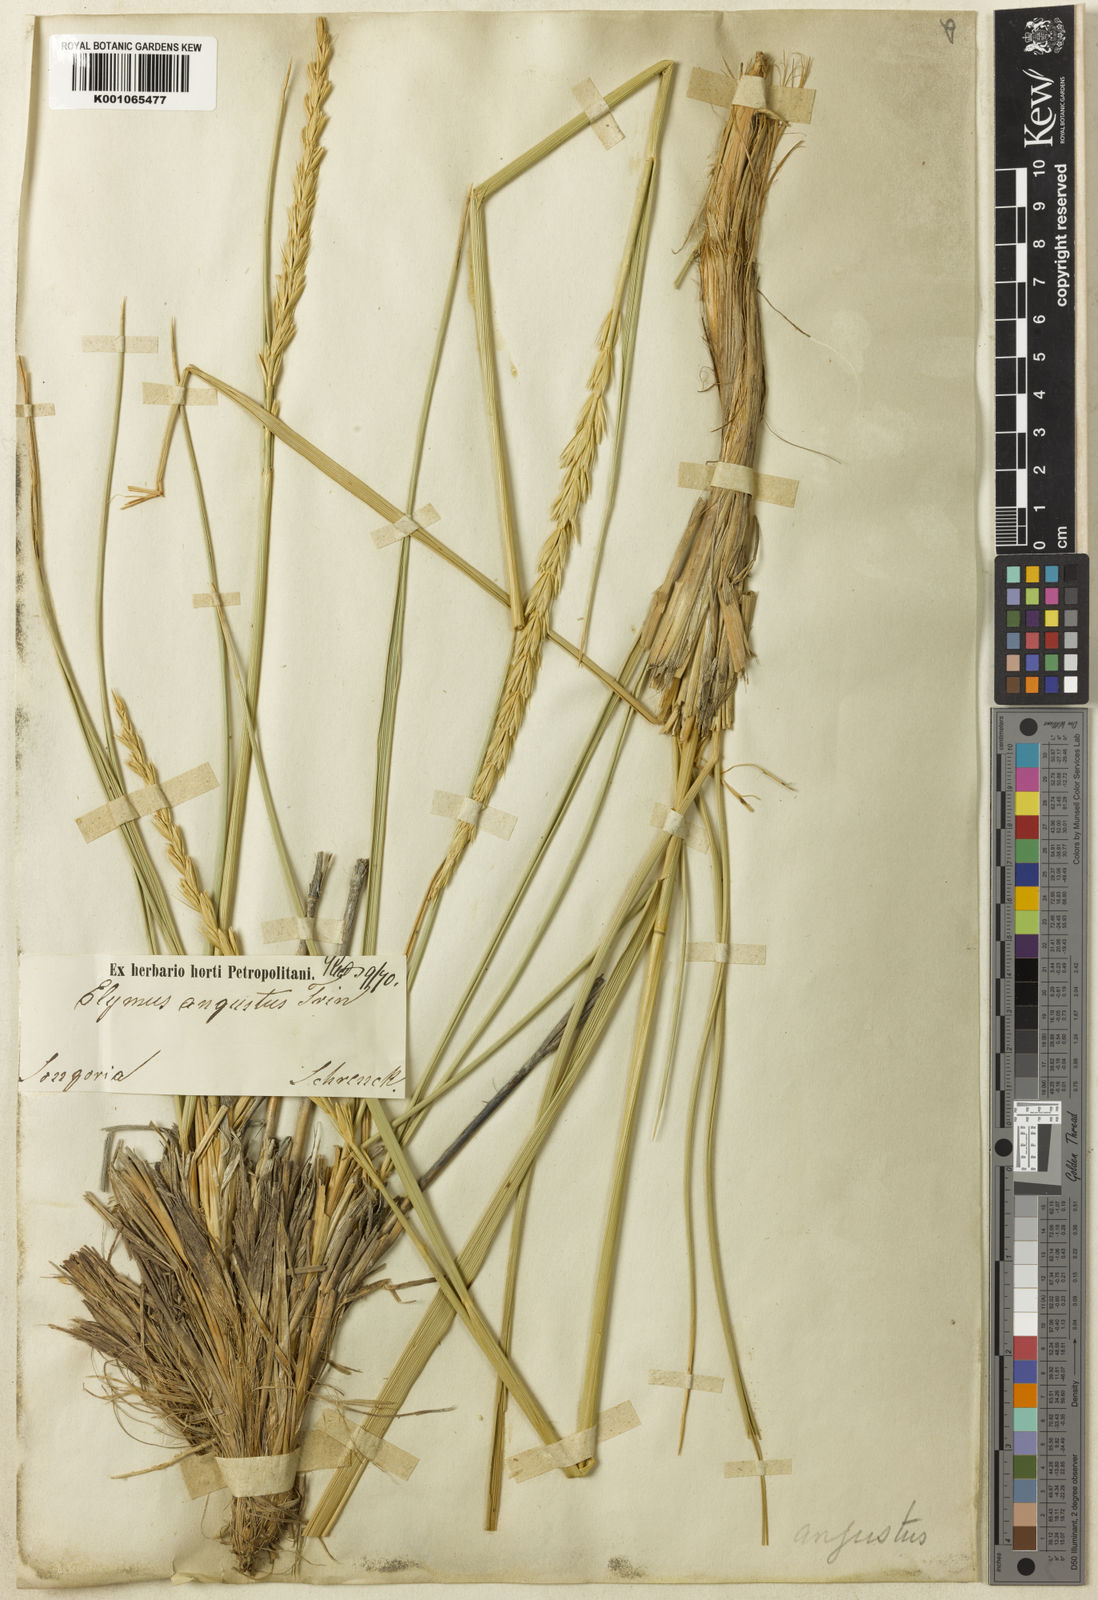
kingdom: Plantae
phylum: Tracheophyta
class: Liliopsida
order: Poales
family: Poaceae
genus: Leymus
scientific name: Leymus angustus
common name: Altai wildrye
